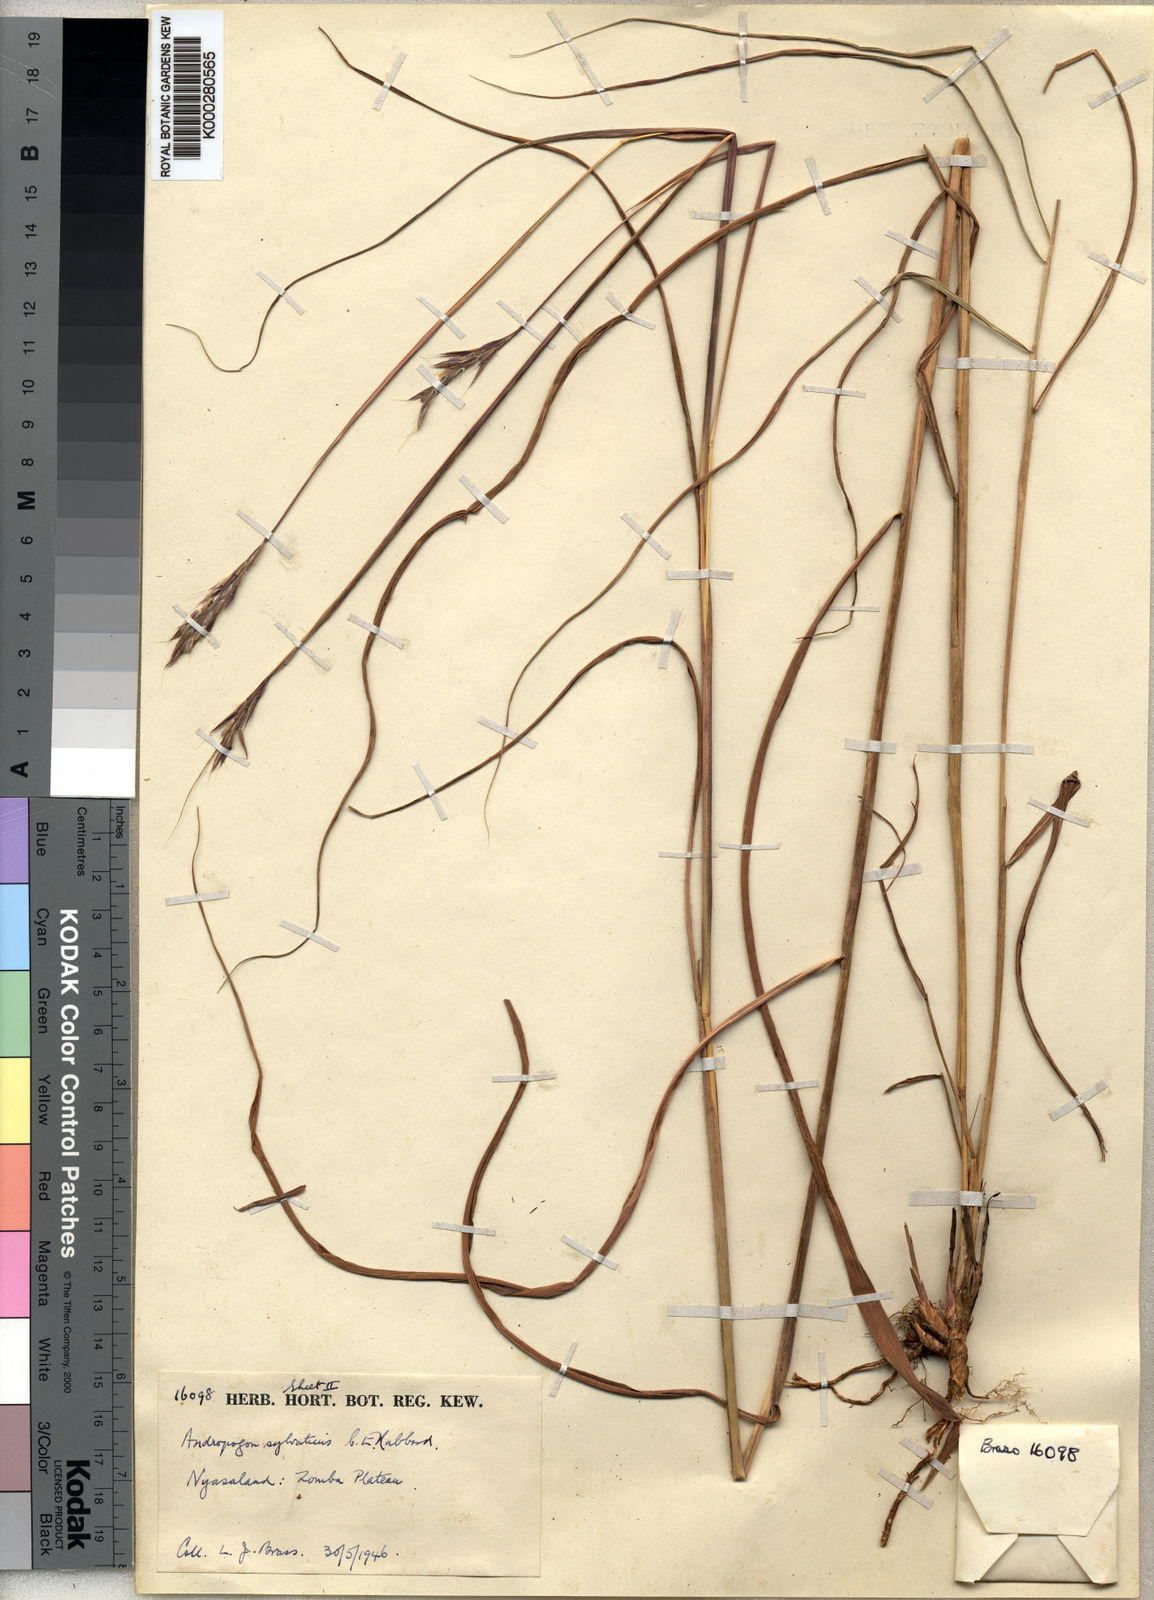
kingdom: Plantae
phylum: Tracheophyta
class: Liliopsida
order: Poales
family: Poaceae
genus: Andropogon
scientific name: Andropogon chinensis
